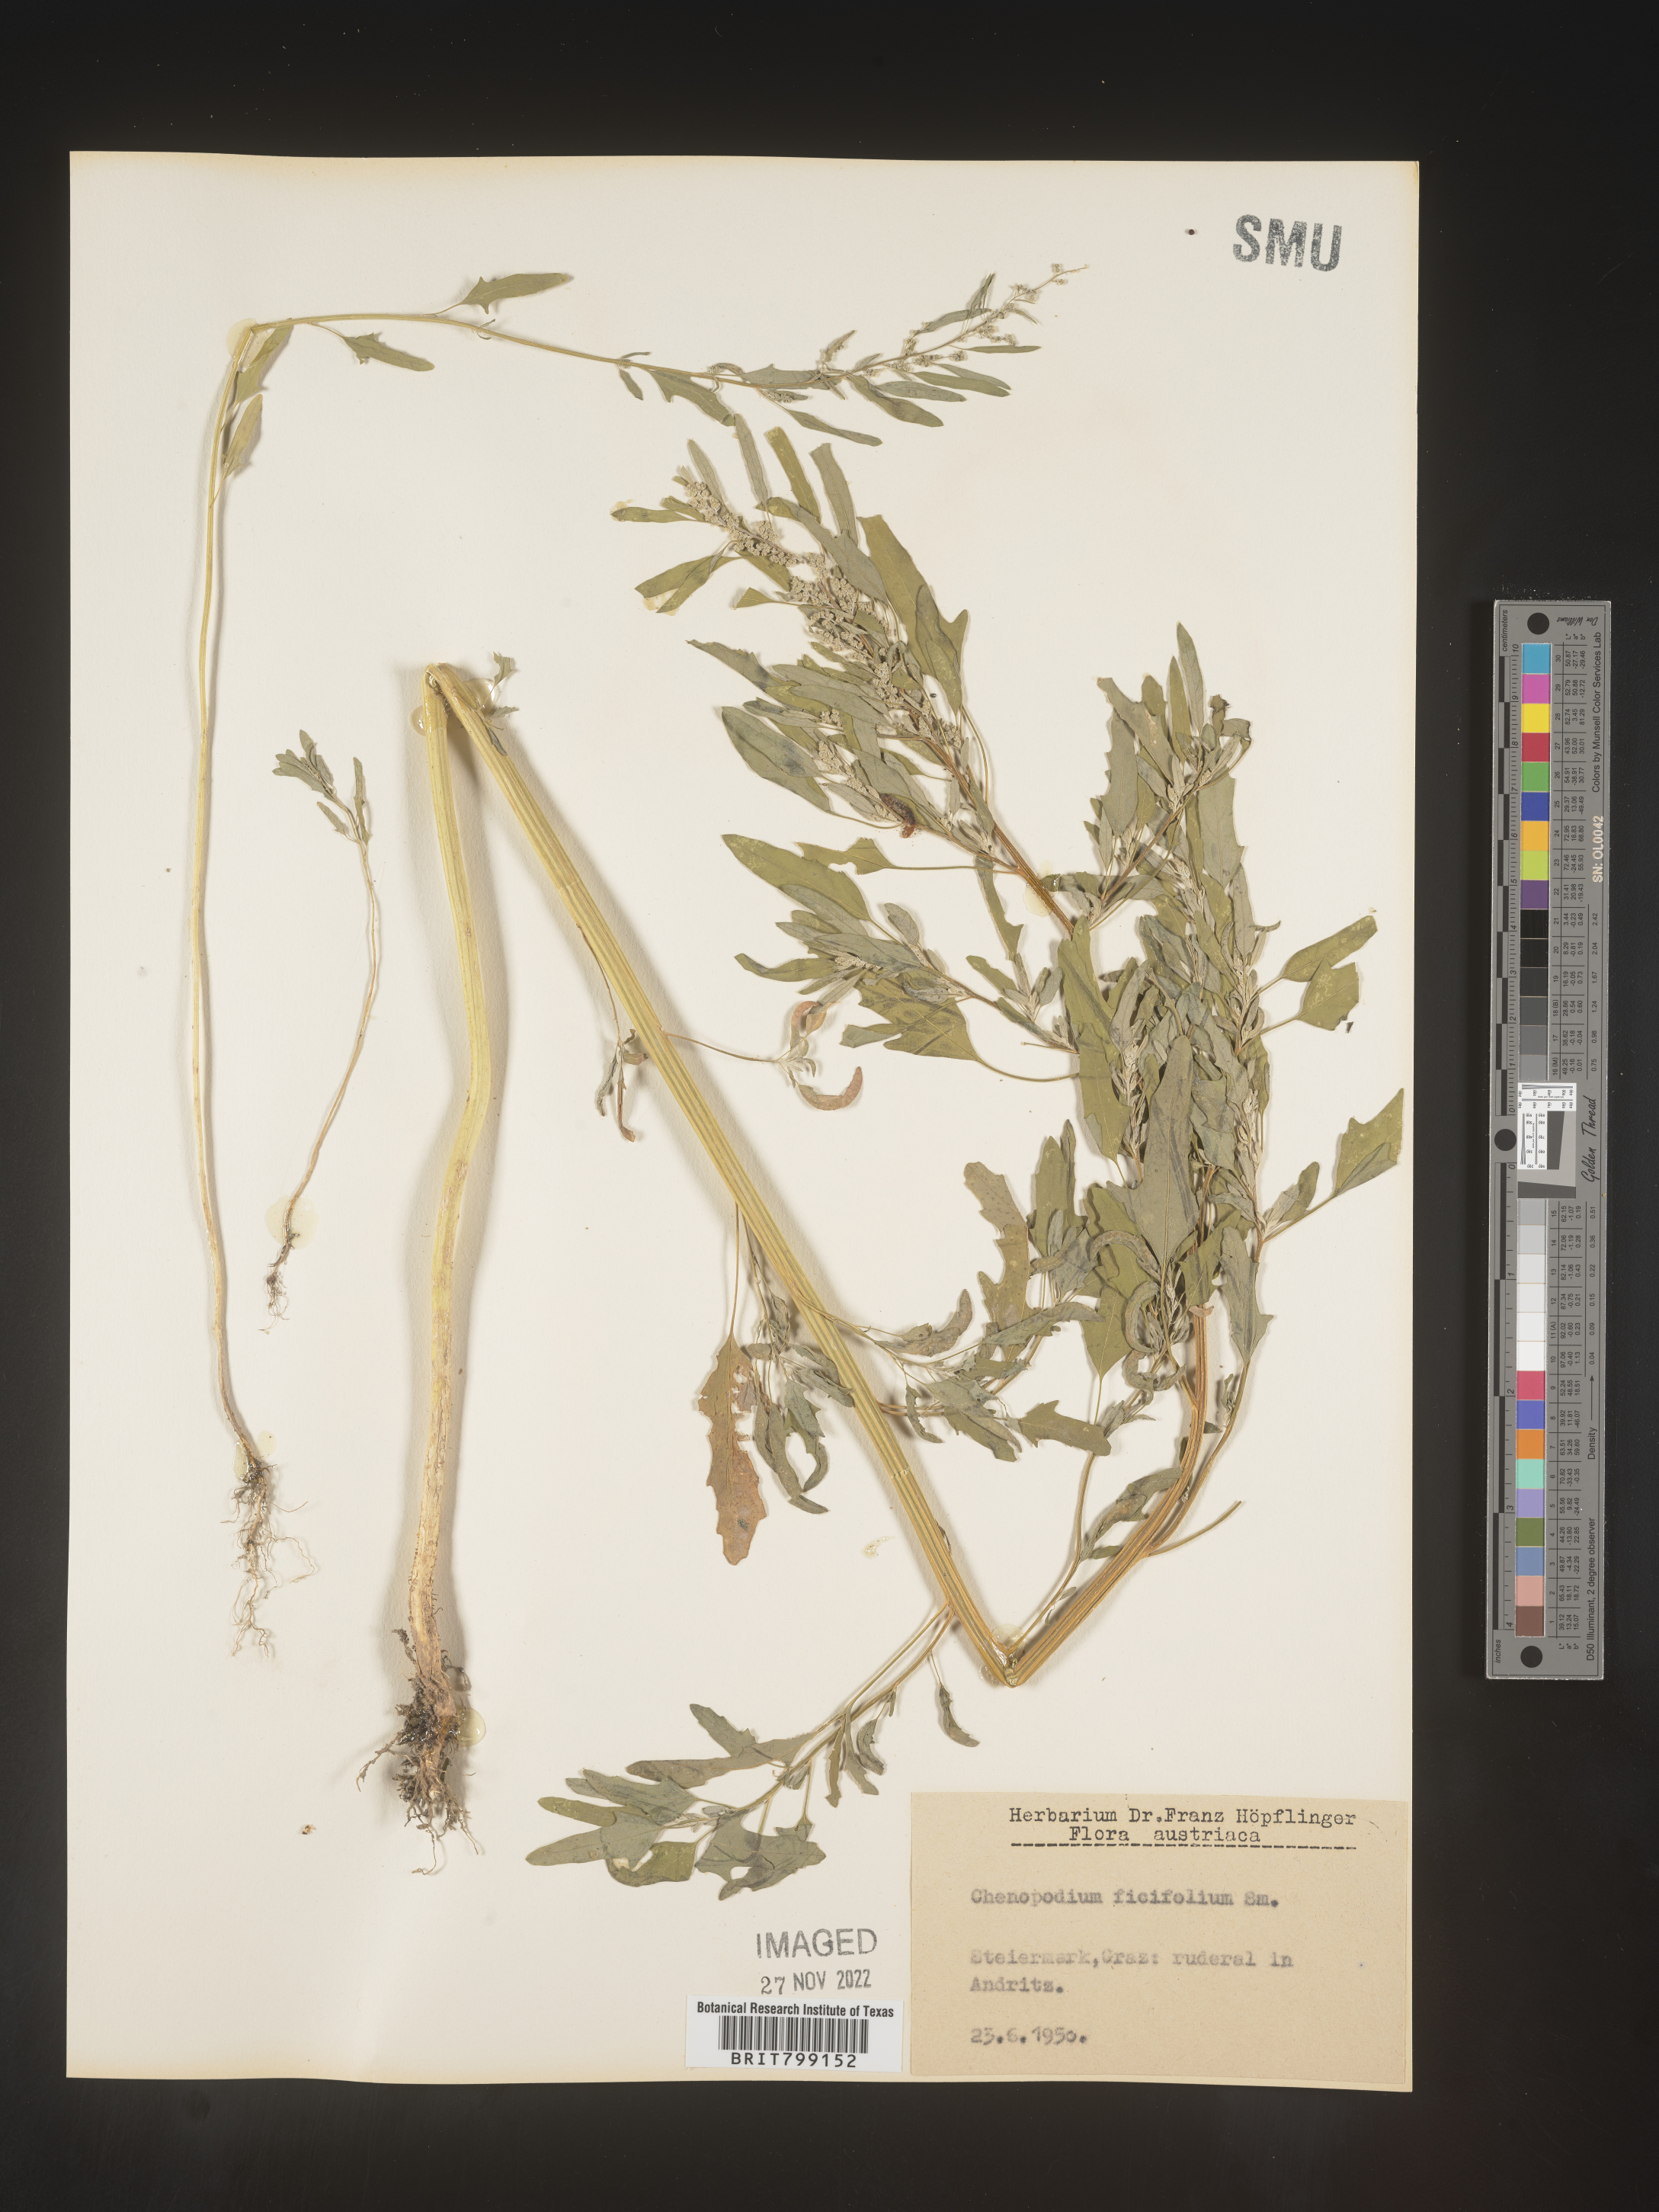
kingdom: Plantae
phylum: Tracheophyta
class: Magnoliopsida
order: Caryophyllales
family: Amaranthaceae
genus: Chenopodium
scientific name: Chenopodium
